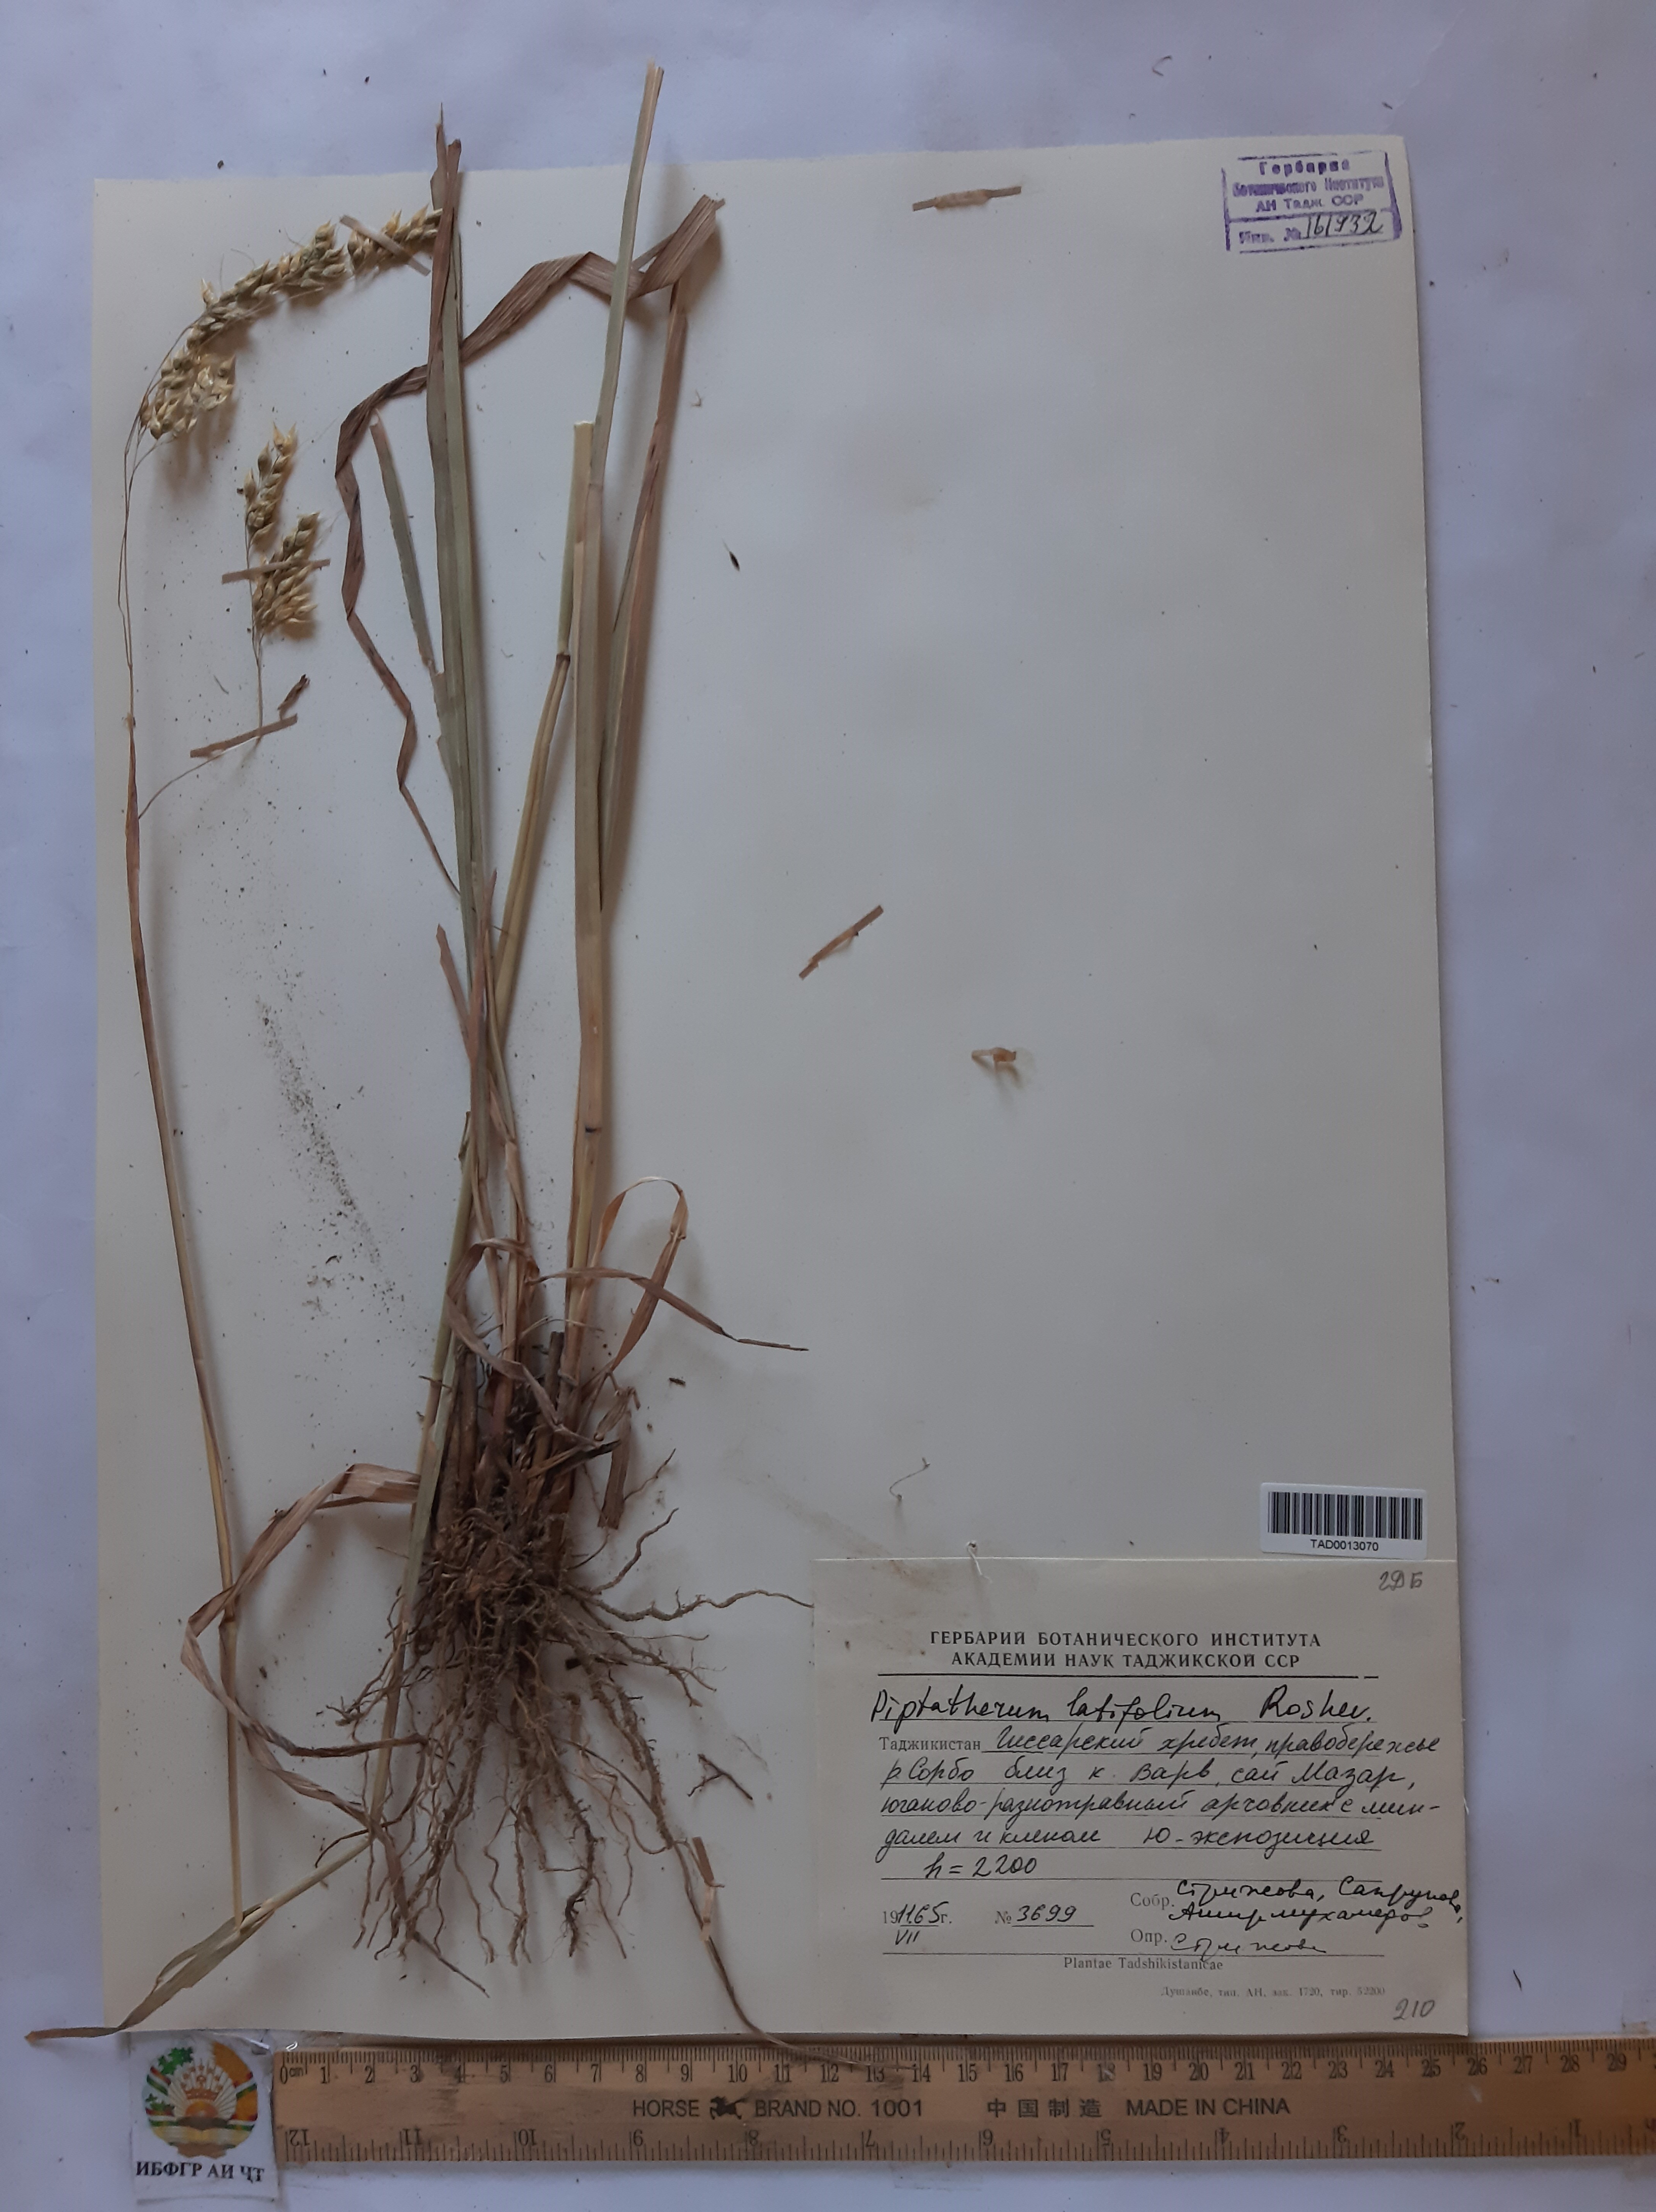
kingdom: Plantae
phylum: Tracheophyta
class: Liliopsida
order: Poales
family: Poaceae
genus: Piptatherum
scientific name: Piptatherum laterale
